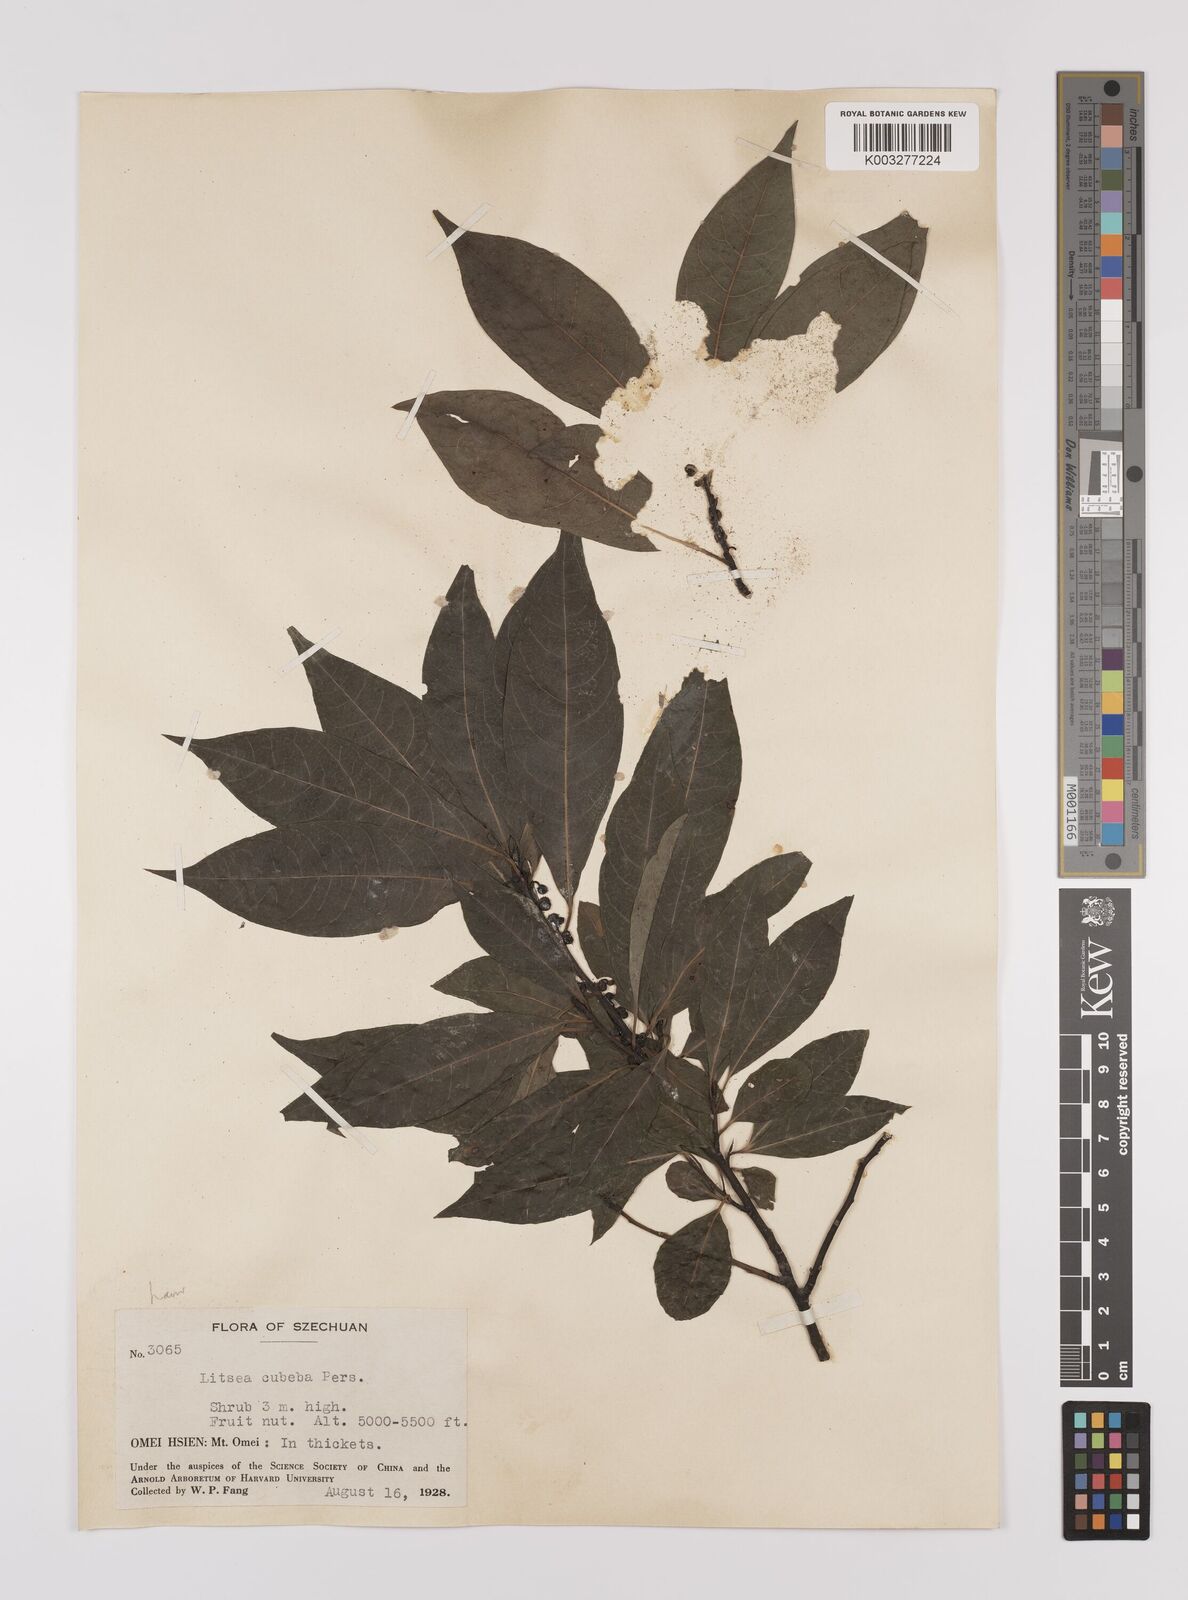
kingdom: Plantae
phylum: Tracheophyta
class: Magnoliopsida
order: Laurales
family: Lauraceae
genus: Litsea
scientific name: Litsea cubeba
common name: Mountain-pepper
